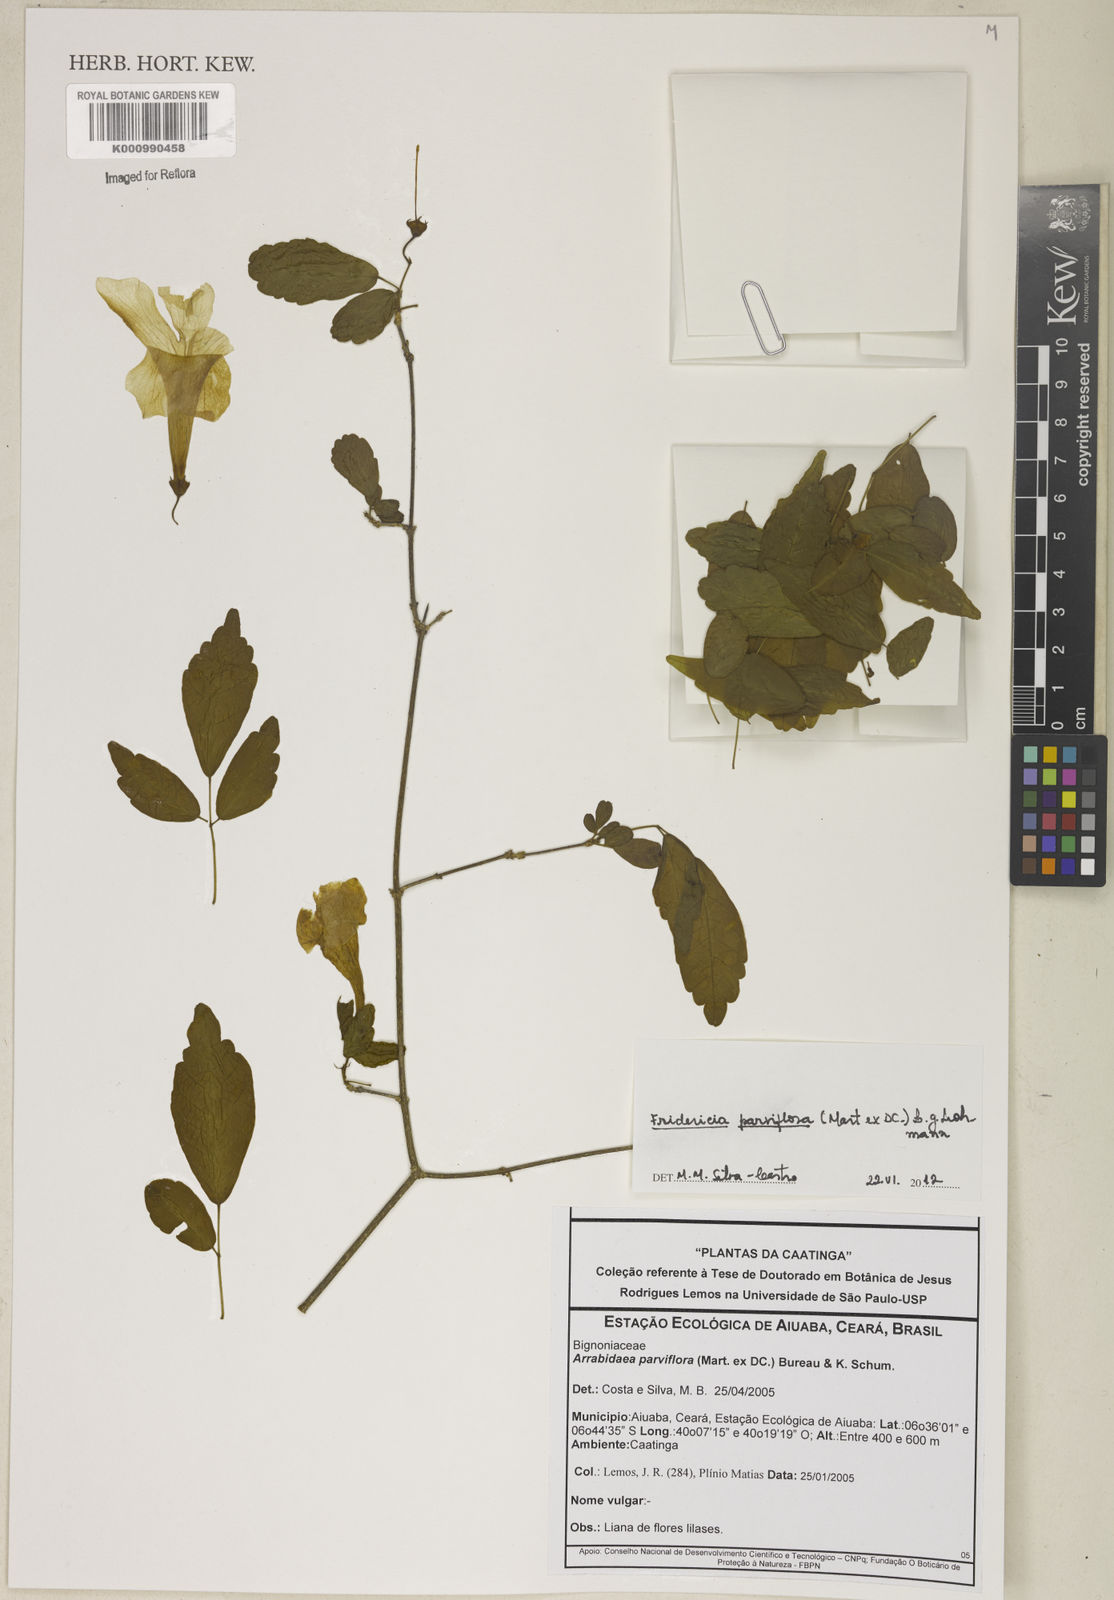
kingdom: Plantae
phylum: Tracheophyta
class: Magnoliopsida
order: Lamiales
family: Bignoniaceae
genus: Tanaecium
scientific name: Tanaecium parviflorum
